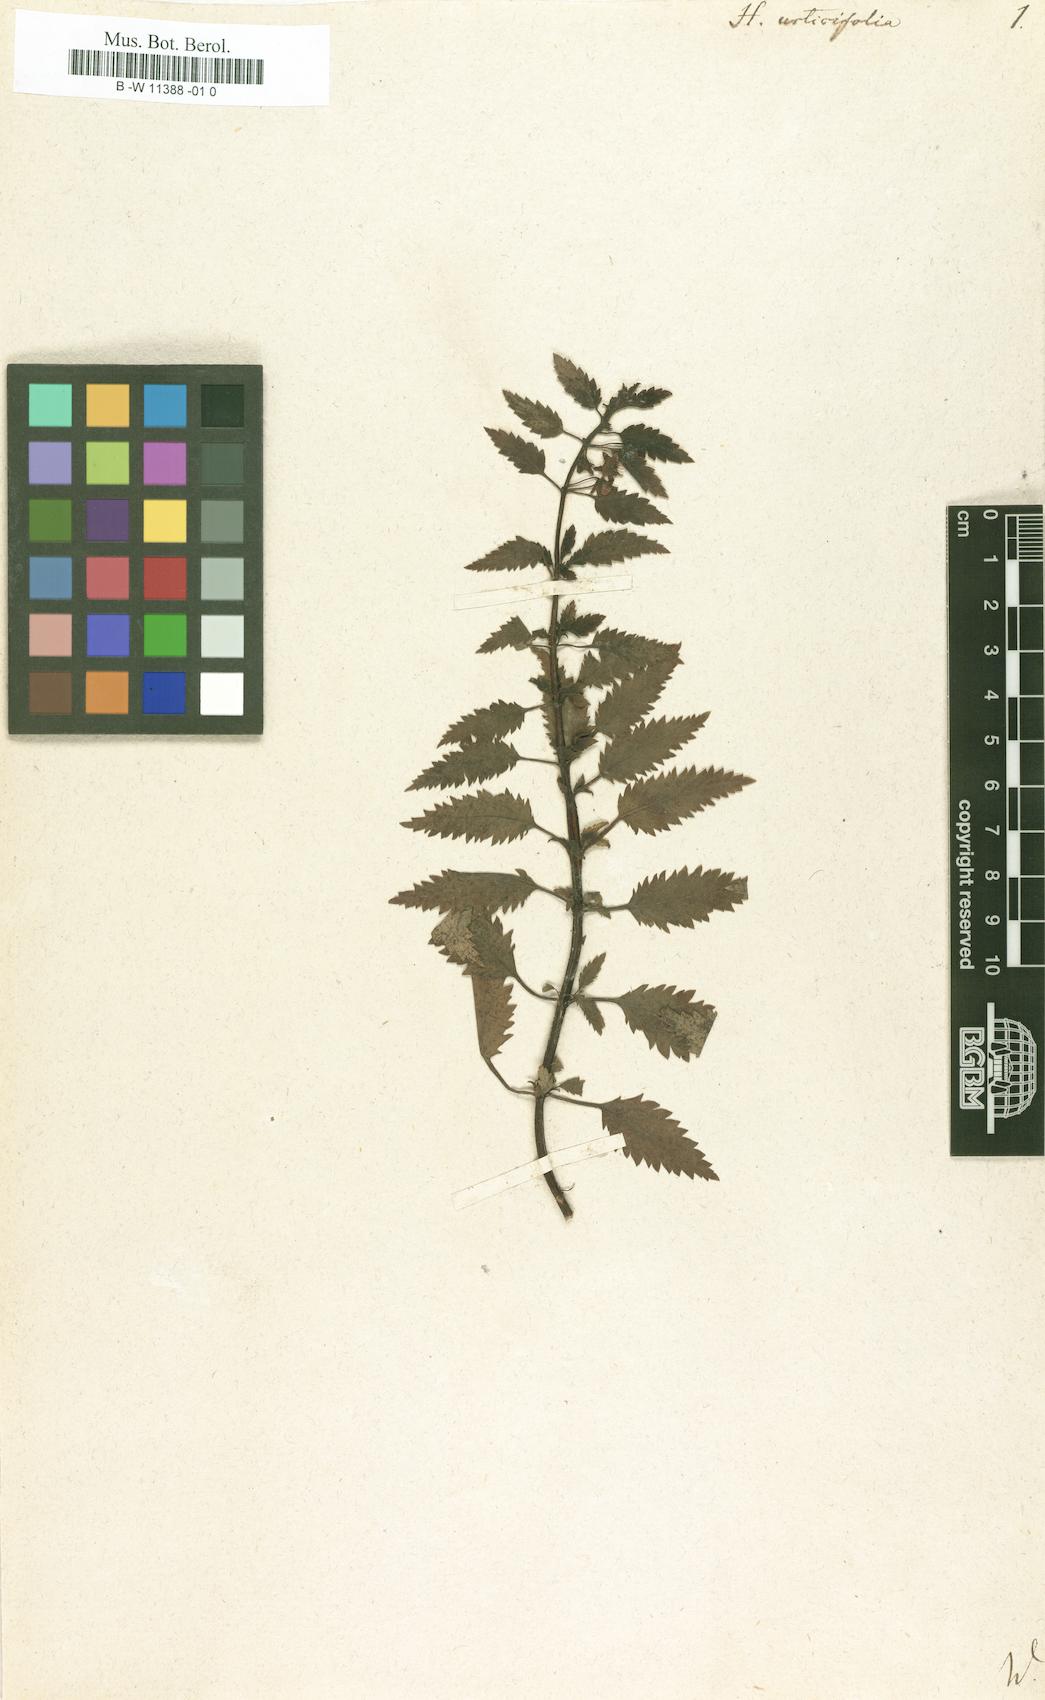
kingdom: Plantae
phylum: Tracheophyta
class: Magnoliopsida
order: Lamiales
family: Scrophulariaceae
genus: Alonsoa
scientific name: Alonsoa meridionalis
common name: Maskflower
